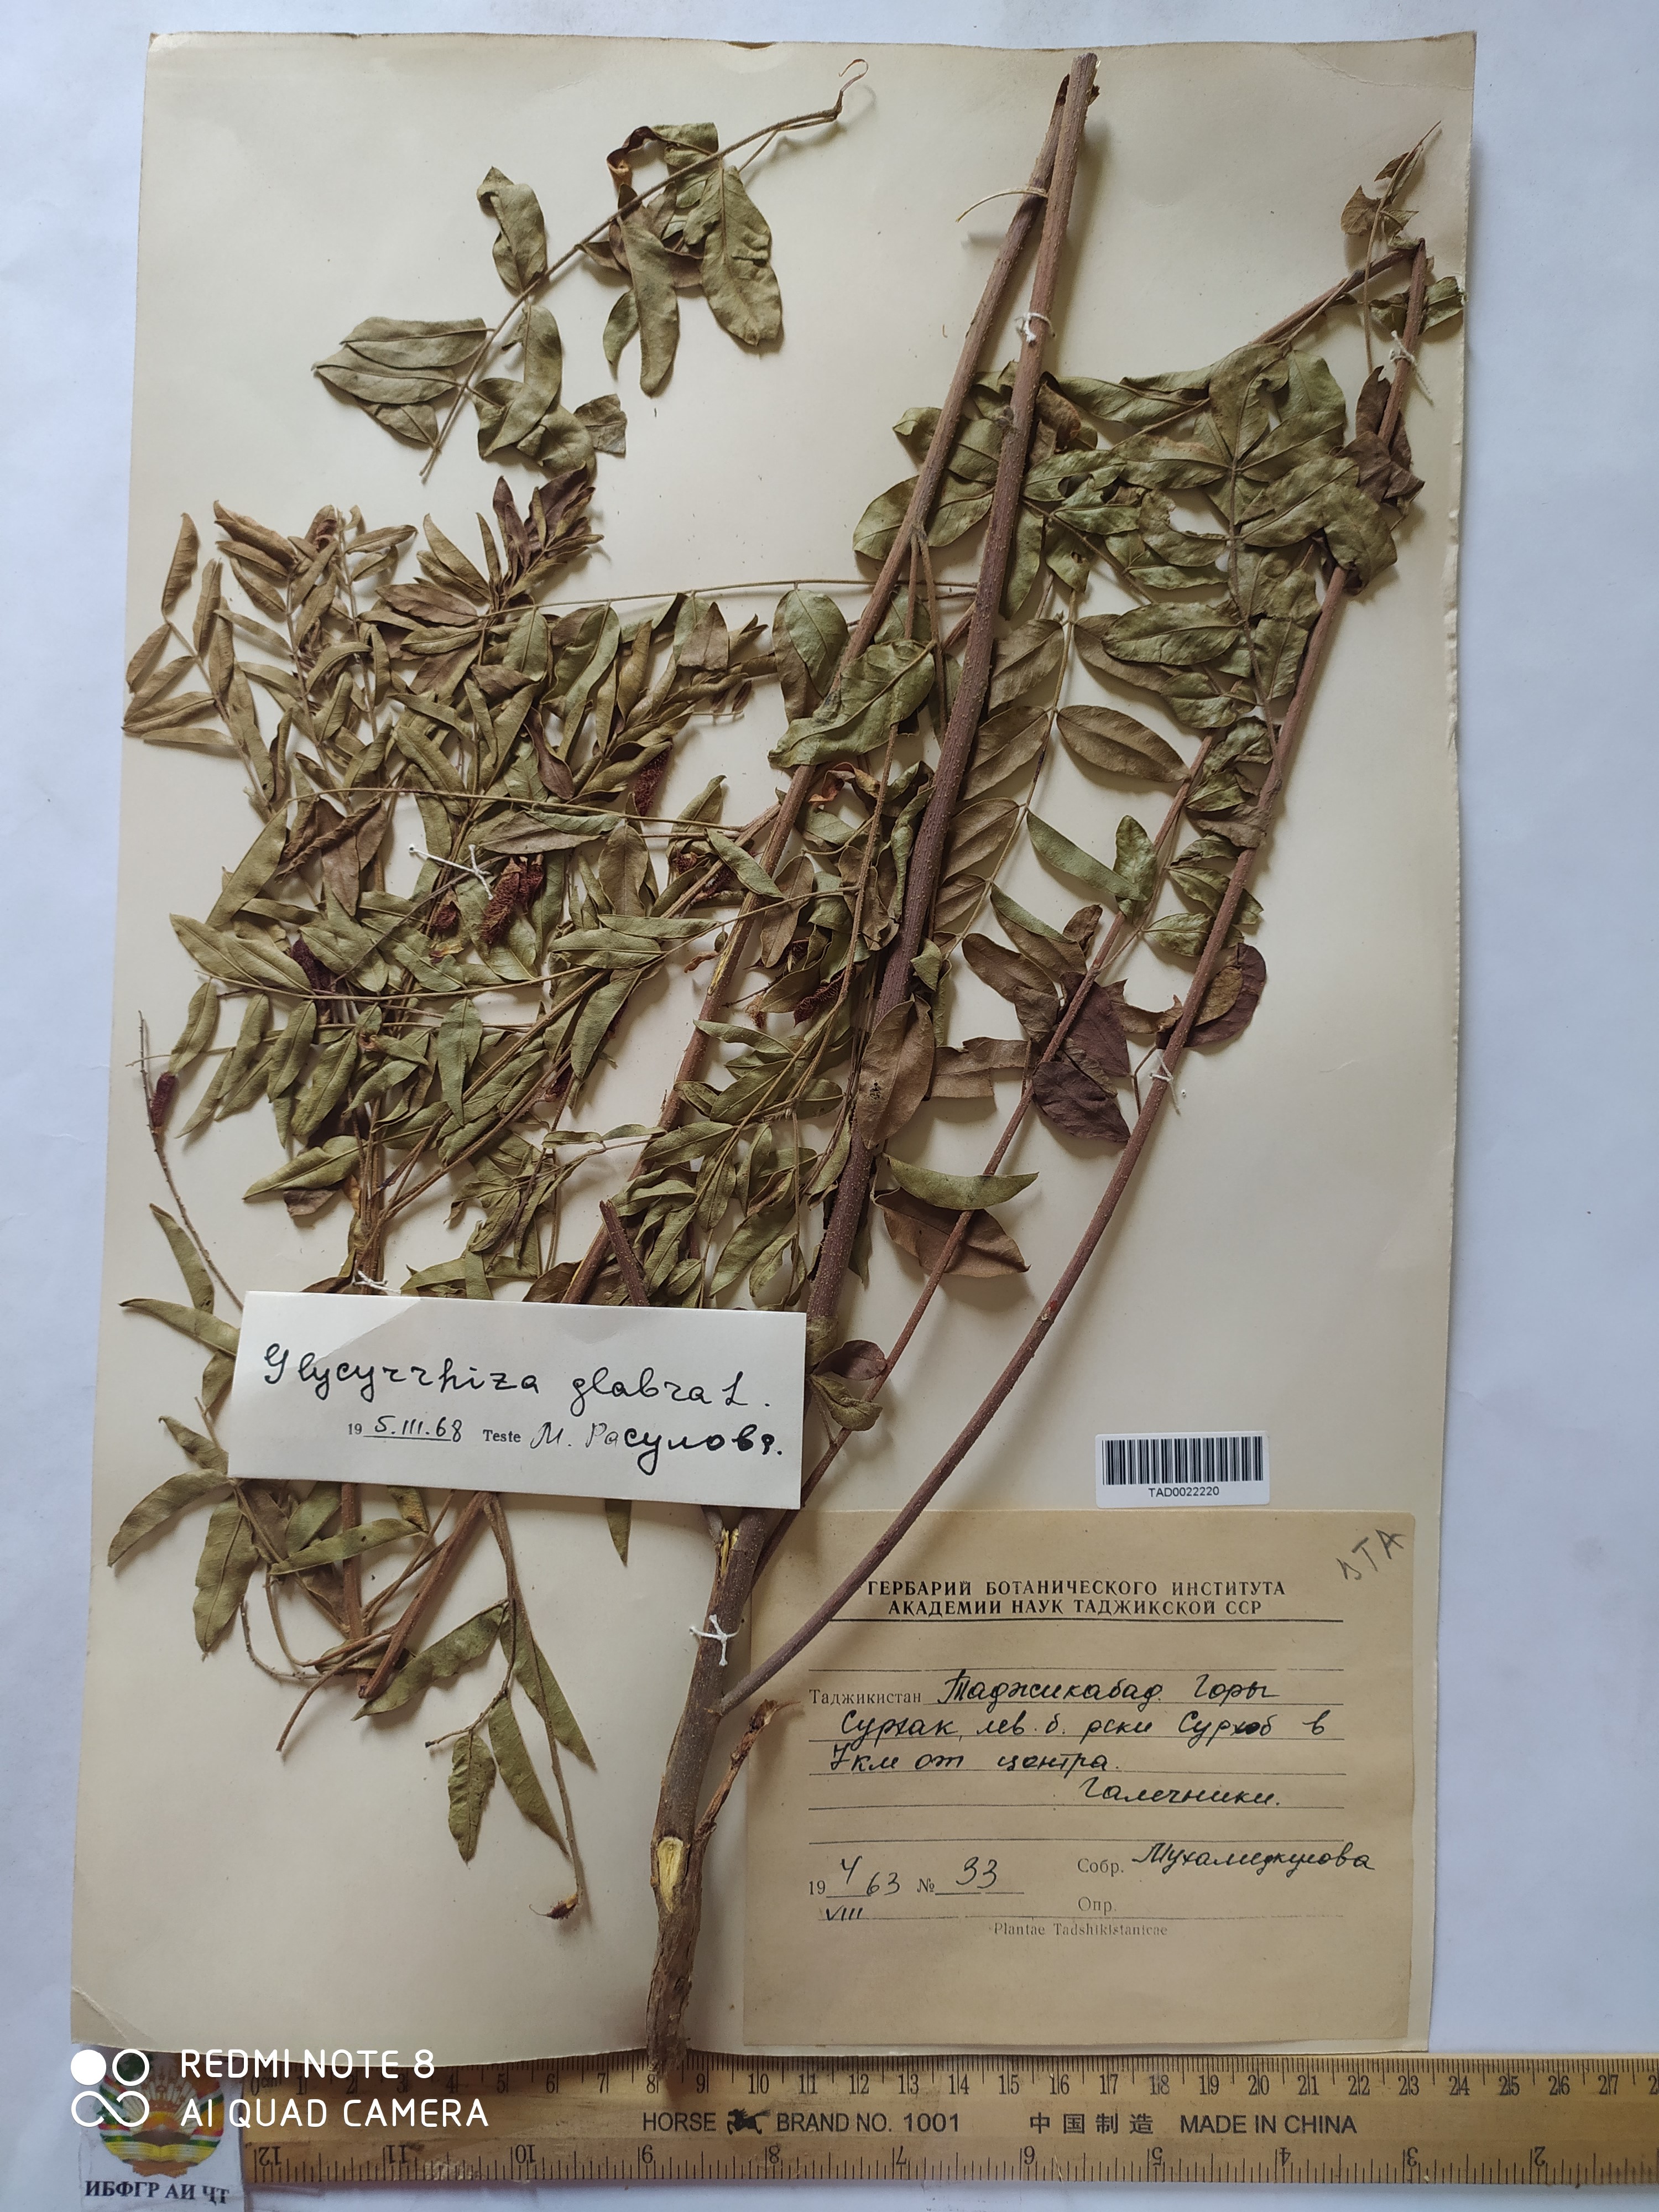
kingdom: Plantae
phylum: Tracheophyta
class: Magnoliopsida
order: Fabales
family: Fabaceae
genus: Glycyrrhiza
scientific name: Glycyrrhiza glabra
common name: Liquorice
